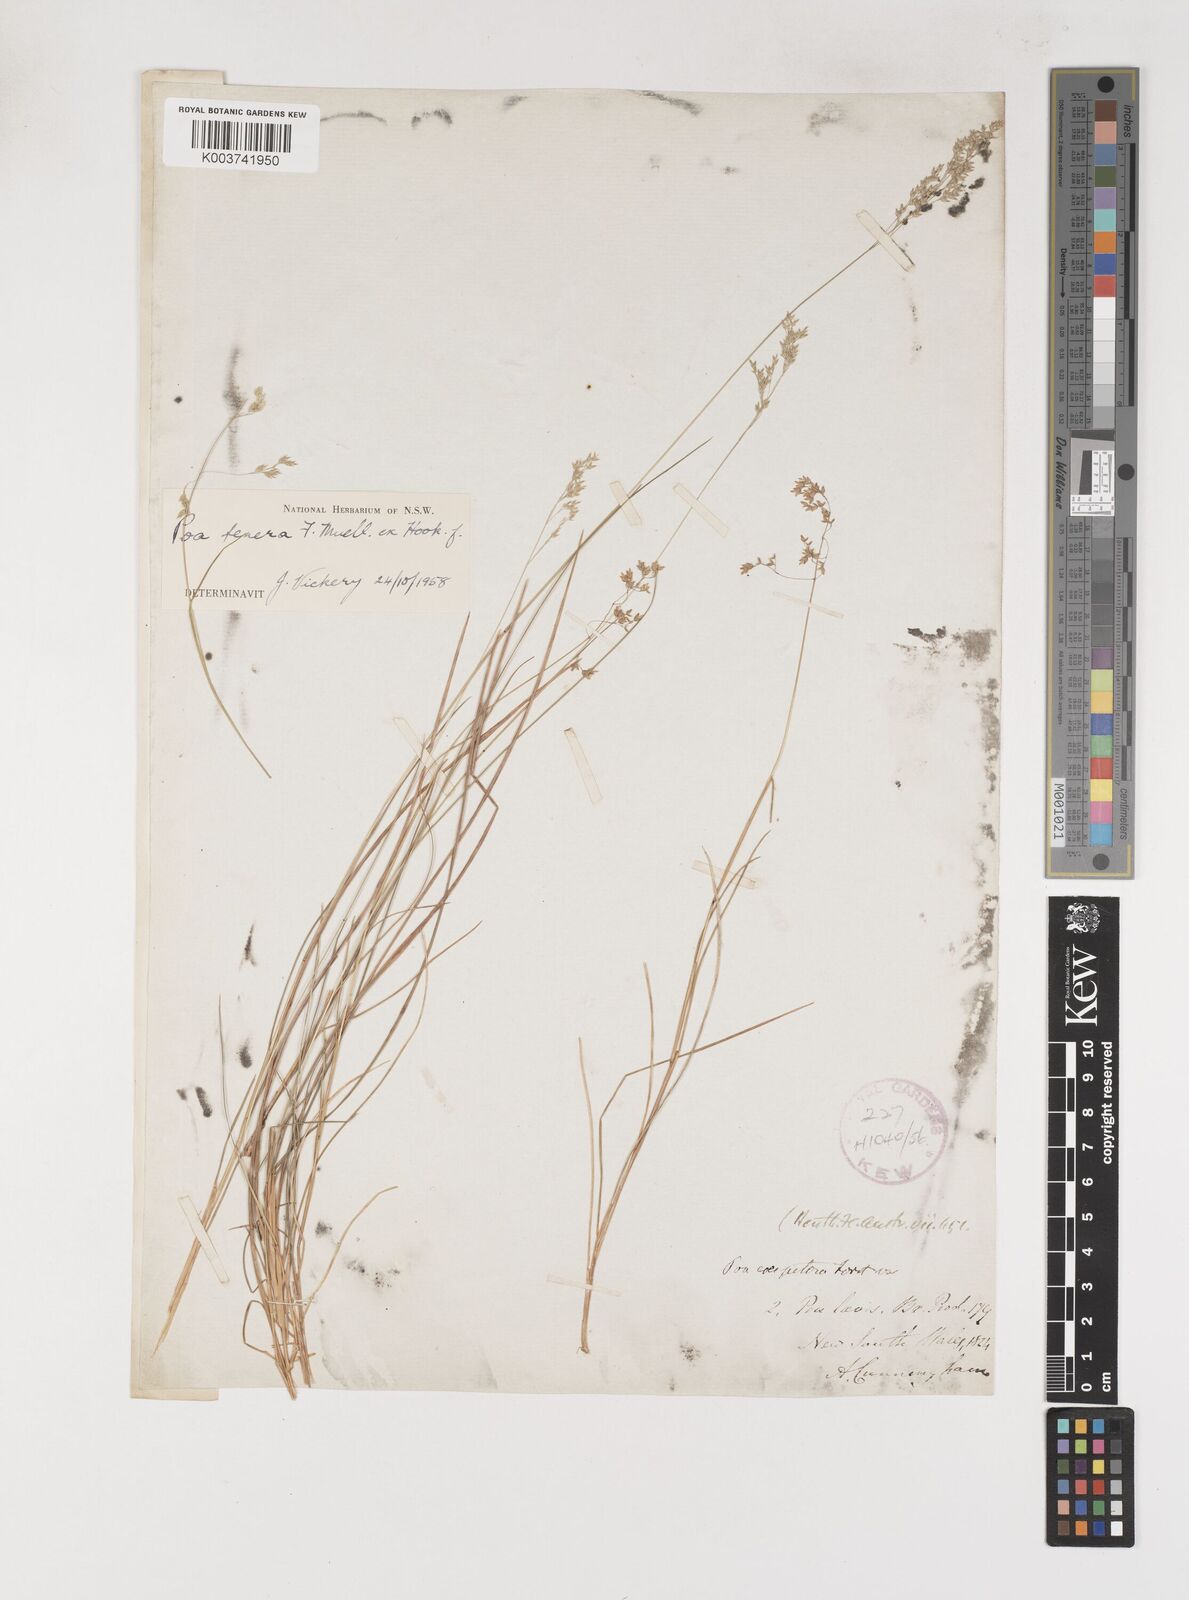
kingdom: Plantae
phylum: Tracheophyta
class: Liliopsida
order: Poales
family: Poaceae
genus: Poa
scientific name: Poa tenera
